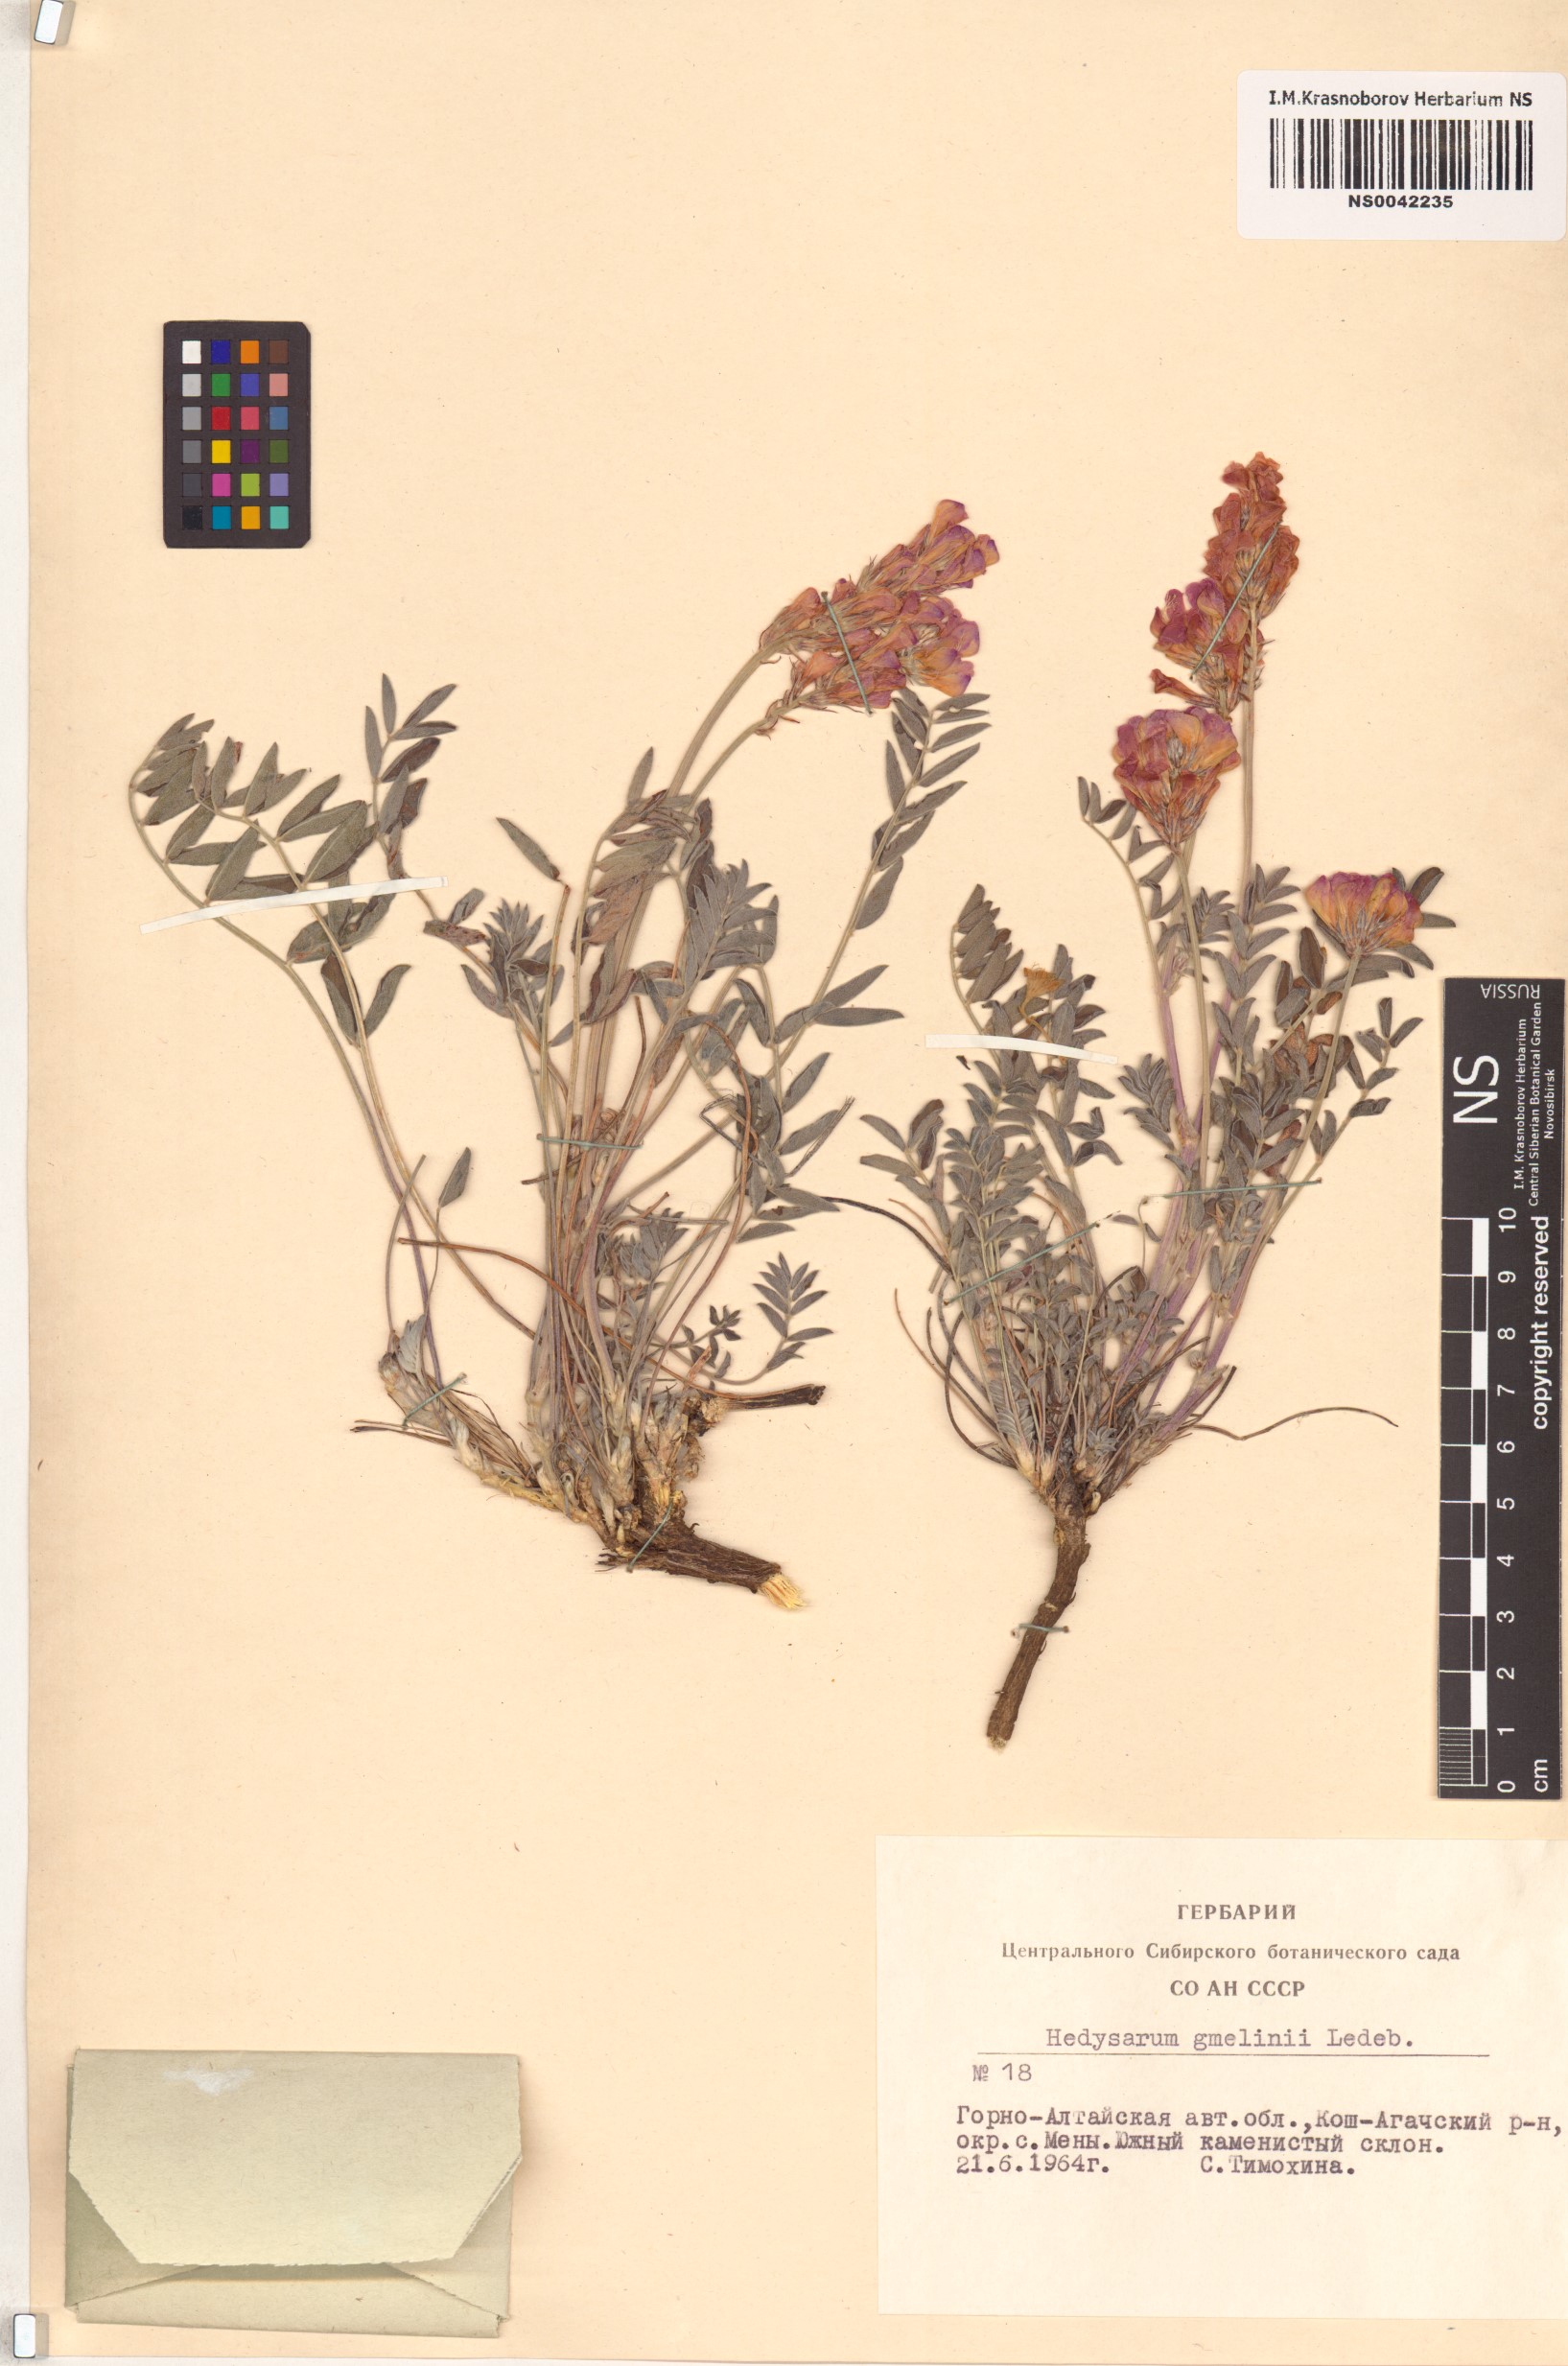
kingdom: Plantae
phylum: Tracheophyta
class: Magnoliopsida
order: Fabales
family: Fabaceae
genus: Hedysarum
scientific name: Hedysarum gmelinii
